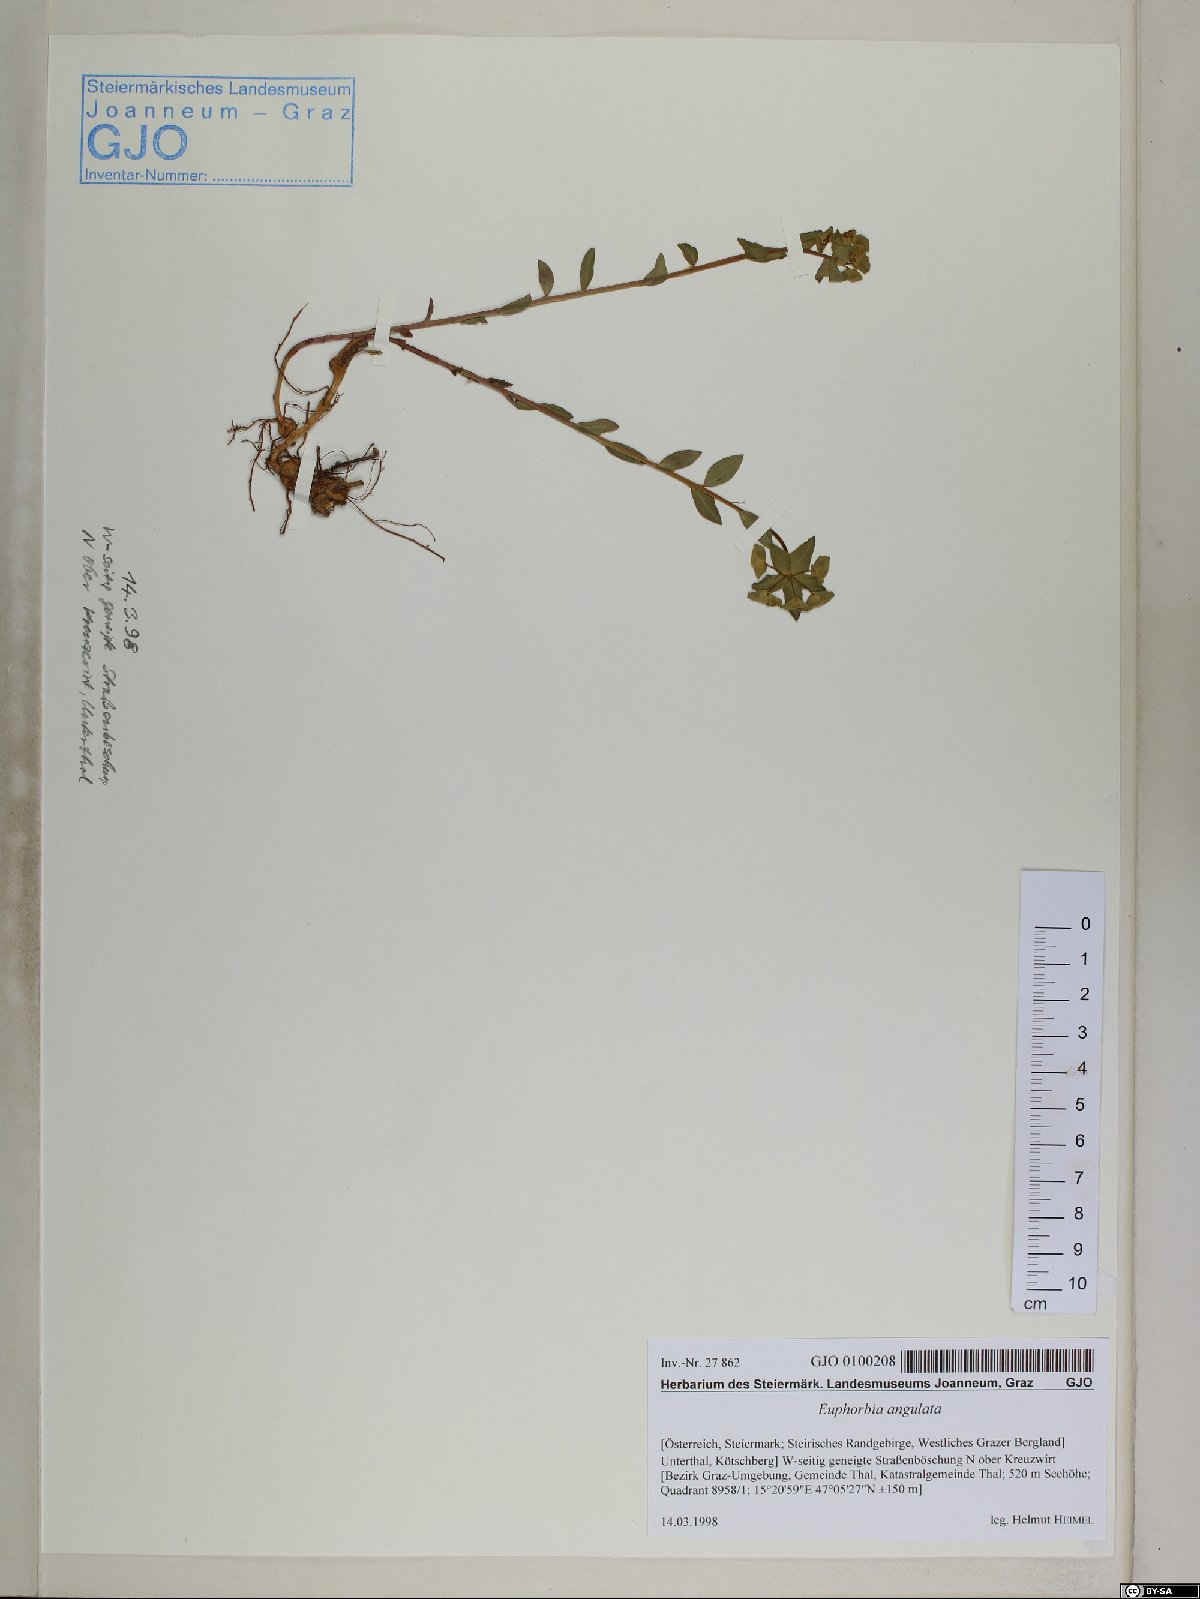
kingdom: Plantae
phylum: Tracheophyta
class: Magnoliopsida
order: Malpighiales
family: Euphorbiaceae
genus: Euphorbia
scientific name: Euphorbia angulata
